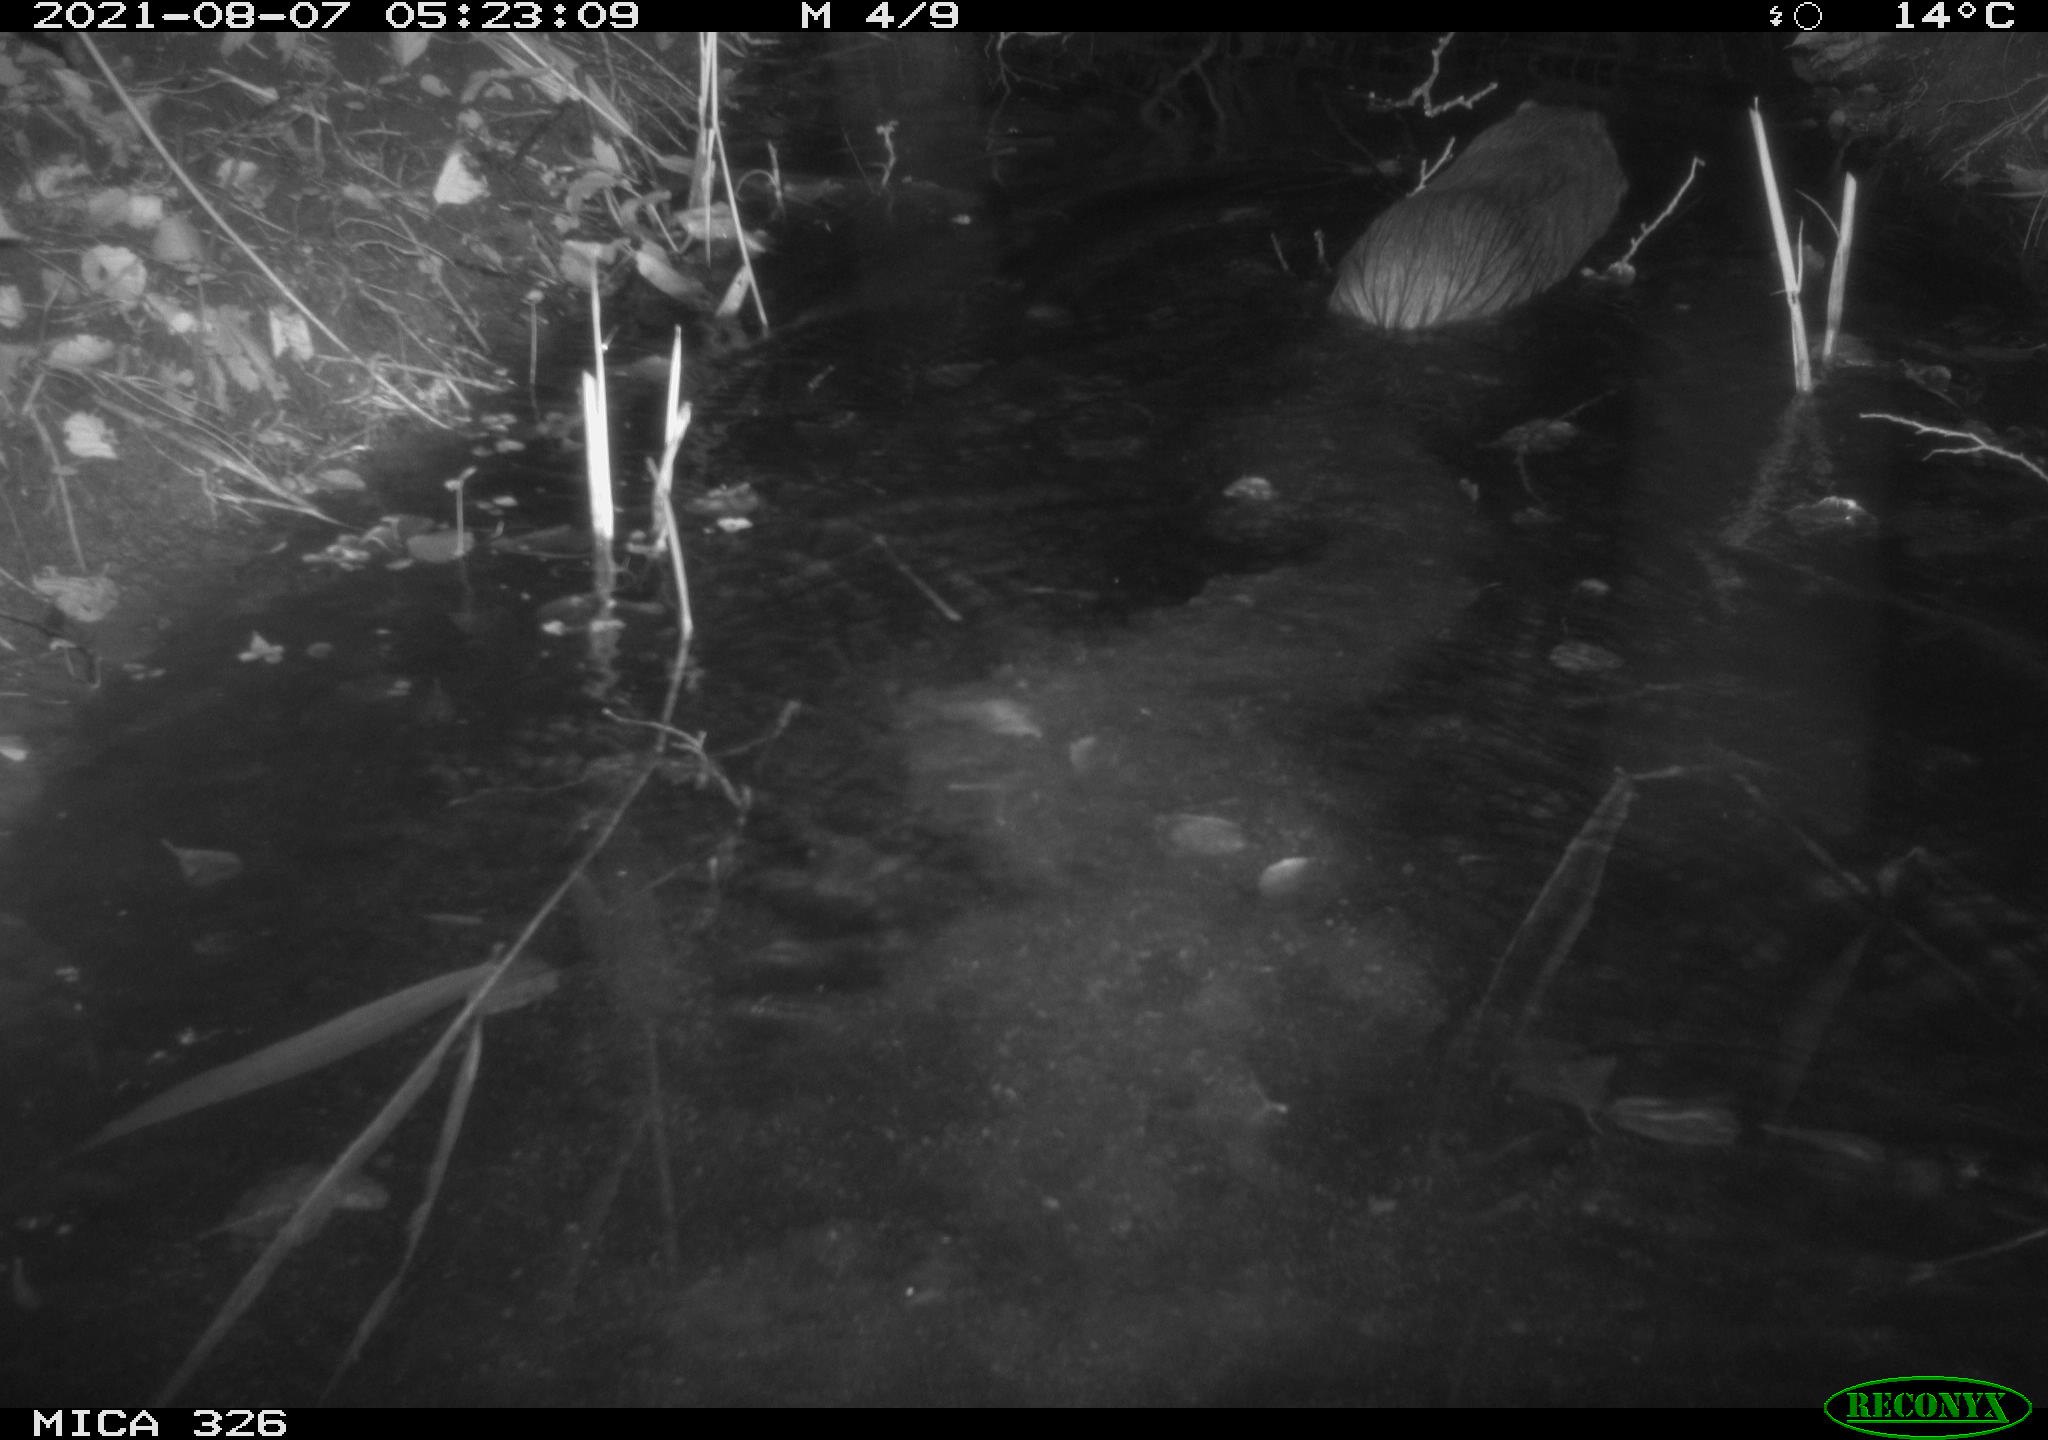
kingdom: Animalia
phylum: Chordata
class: Mammalia
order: Rodentia
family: Myocastoridae
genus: Myocastor
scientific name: Myocastor coypus
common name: Coypu
